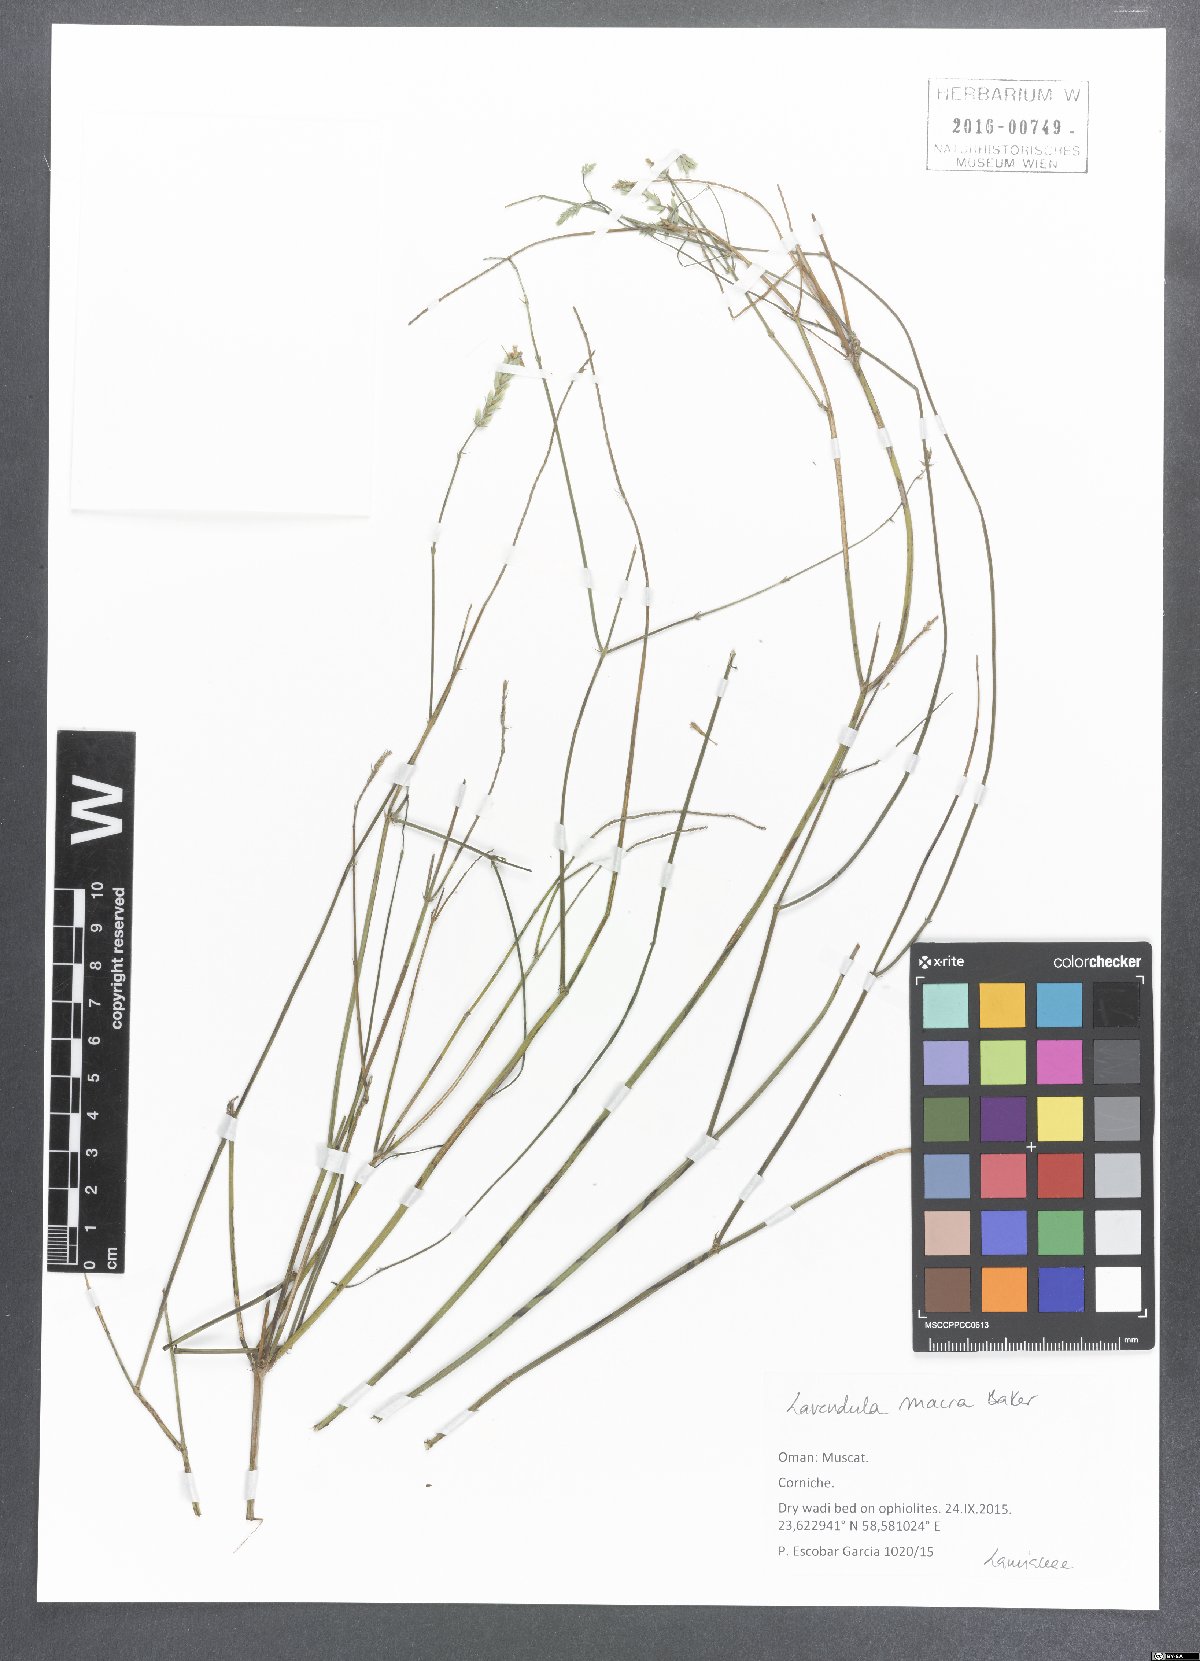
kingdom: Plantae
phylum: Tracheophyta
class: Magnoliopsida
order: Lamiales
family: Lamiaceae
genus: Lavandula
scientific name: Lavandula macra
